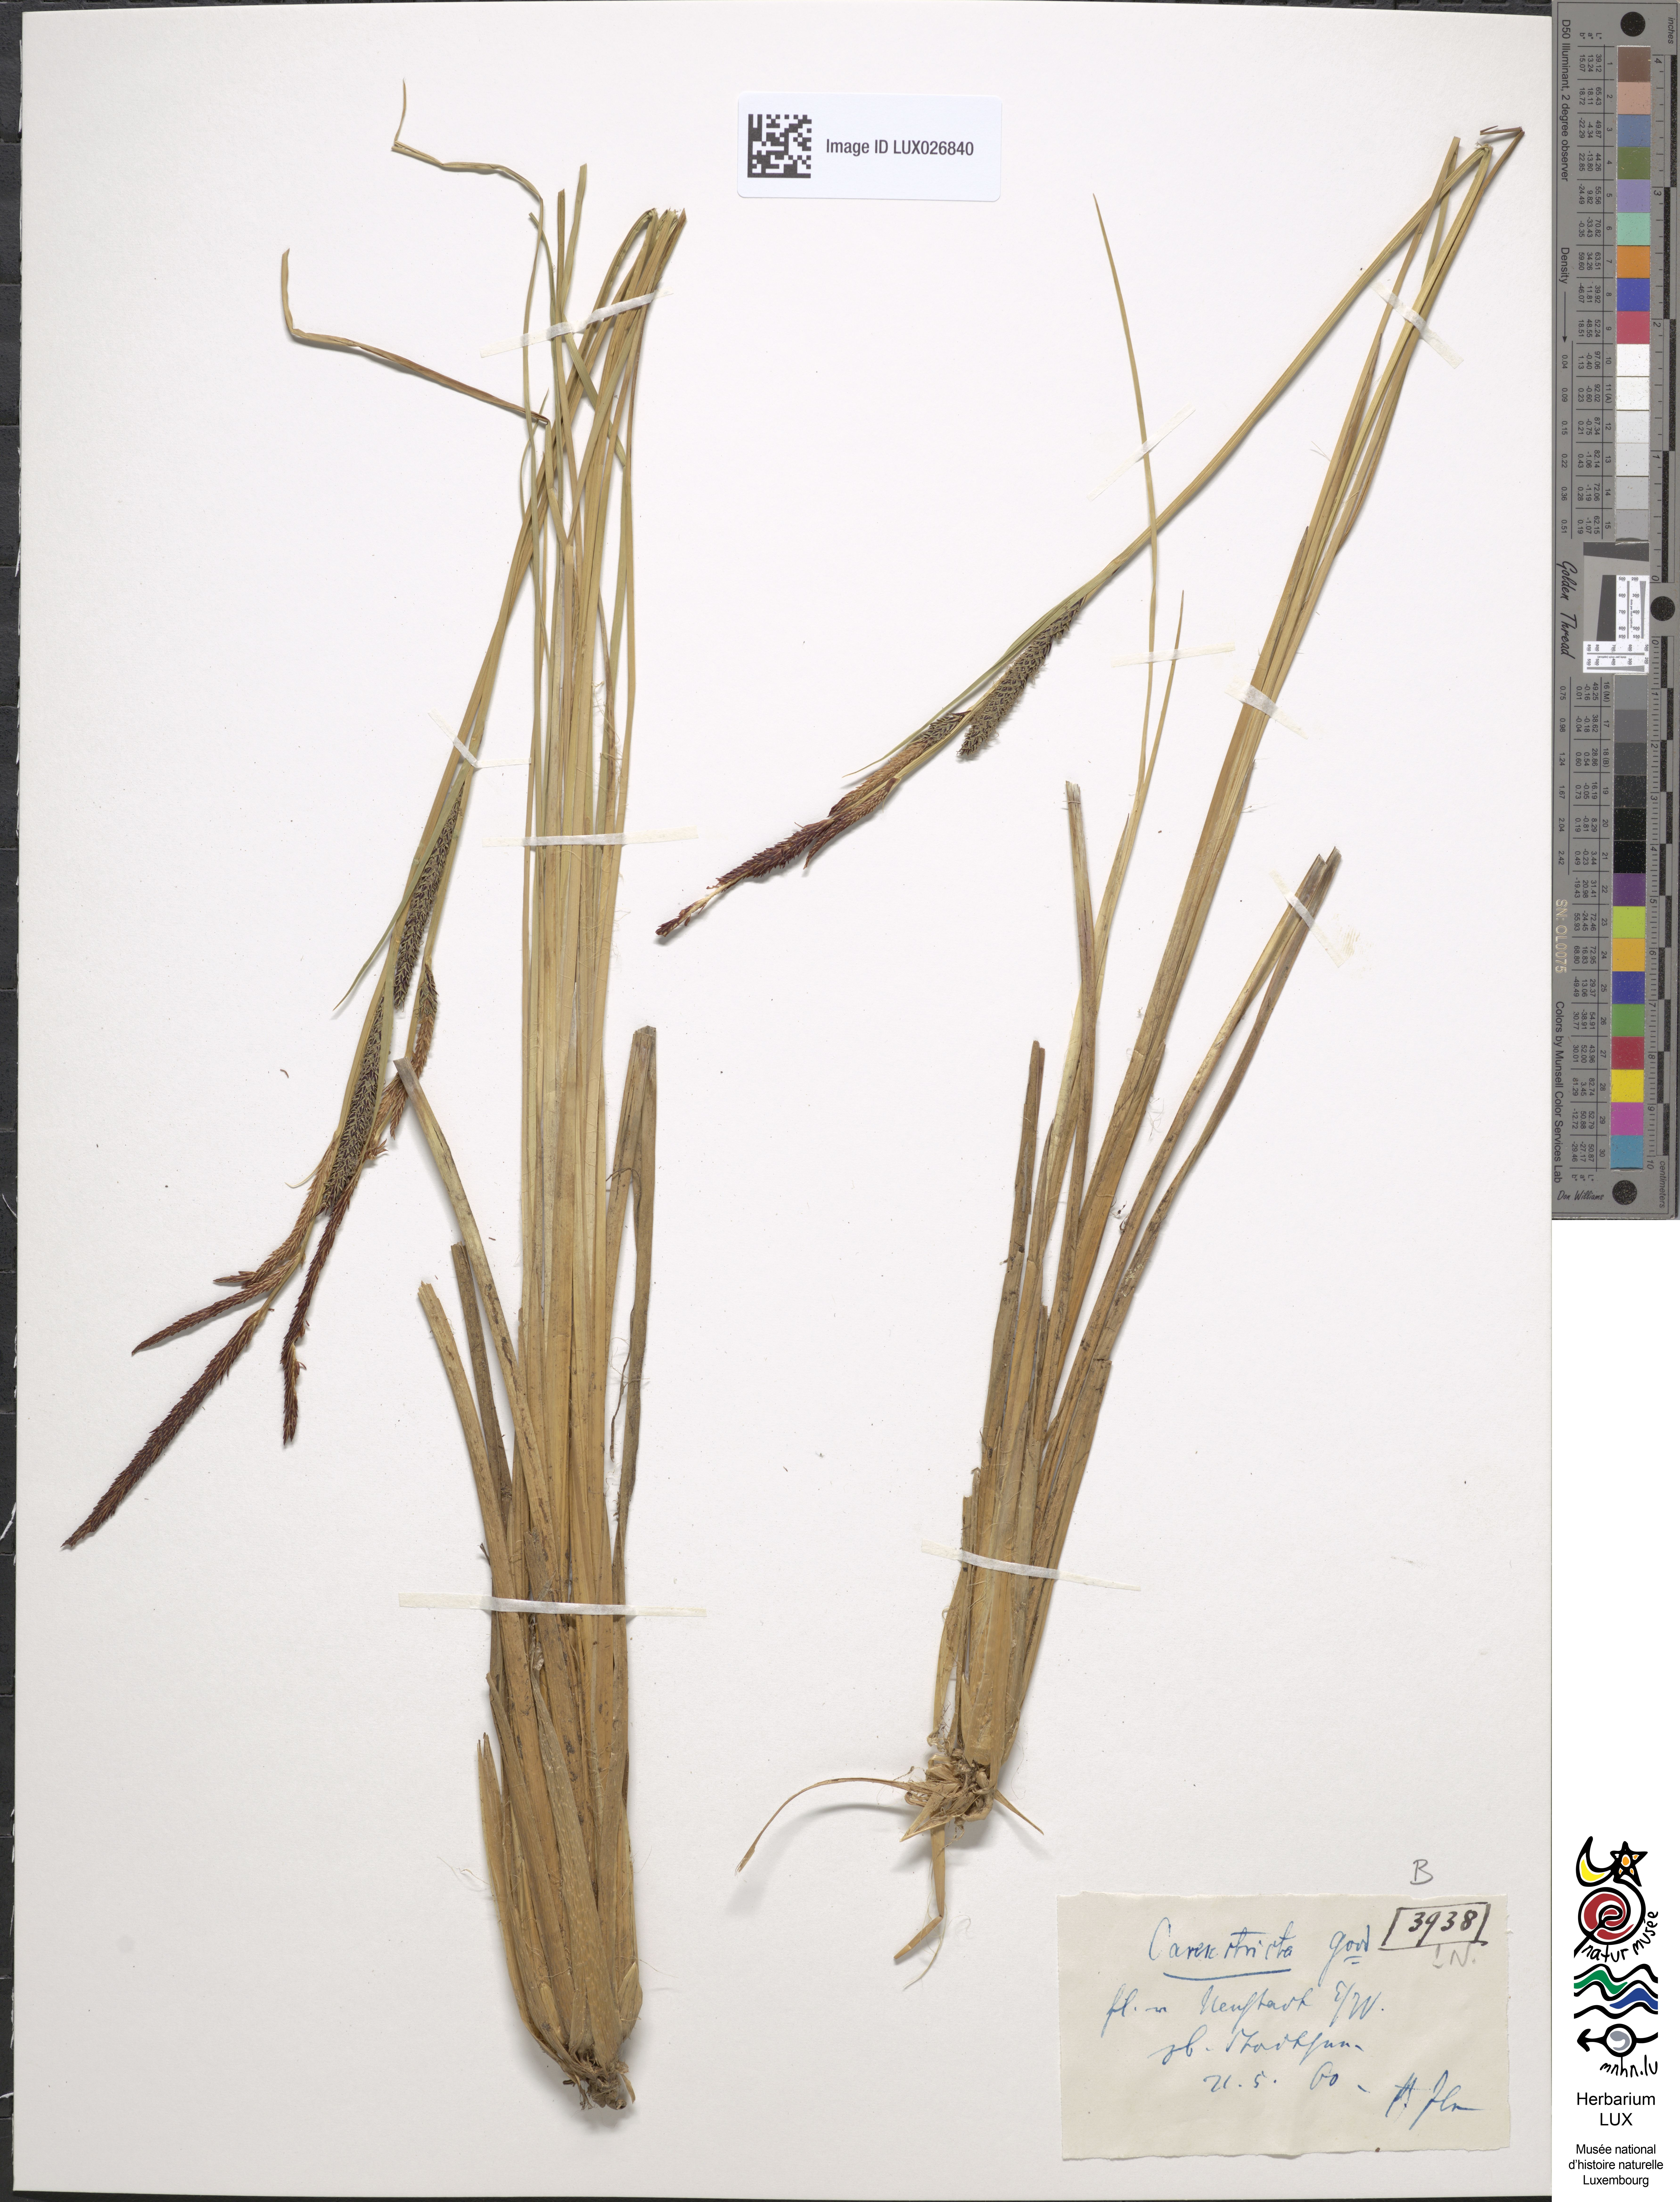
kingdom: Plantae
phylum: Tracheophyta
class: Liliopsida
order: Poales
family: Cyperaceae
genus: Carex
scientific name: Carex elata
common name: Tufted sedge
